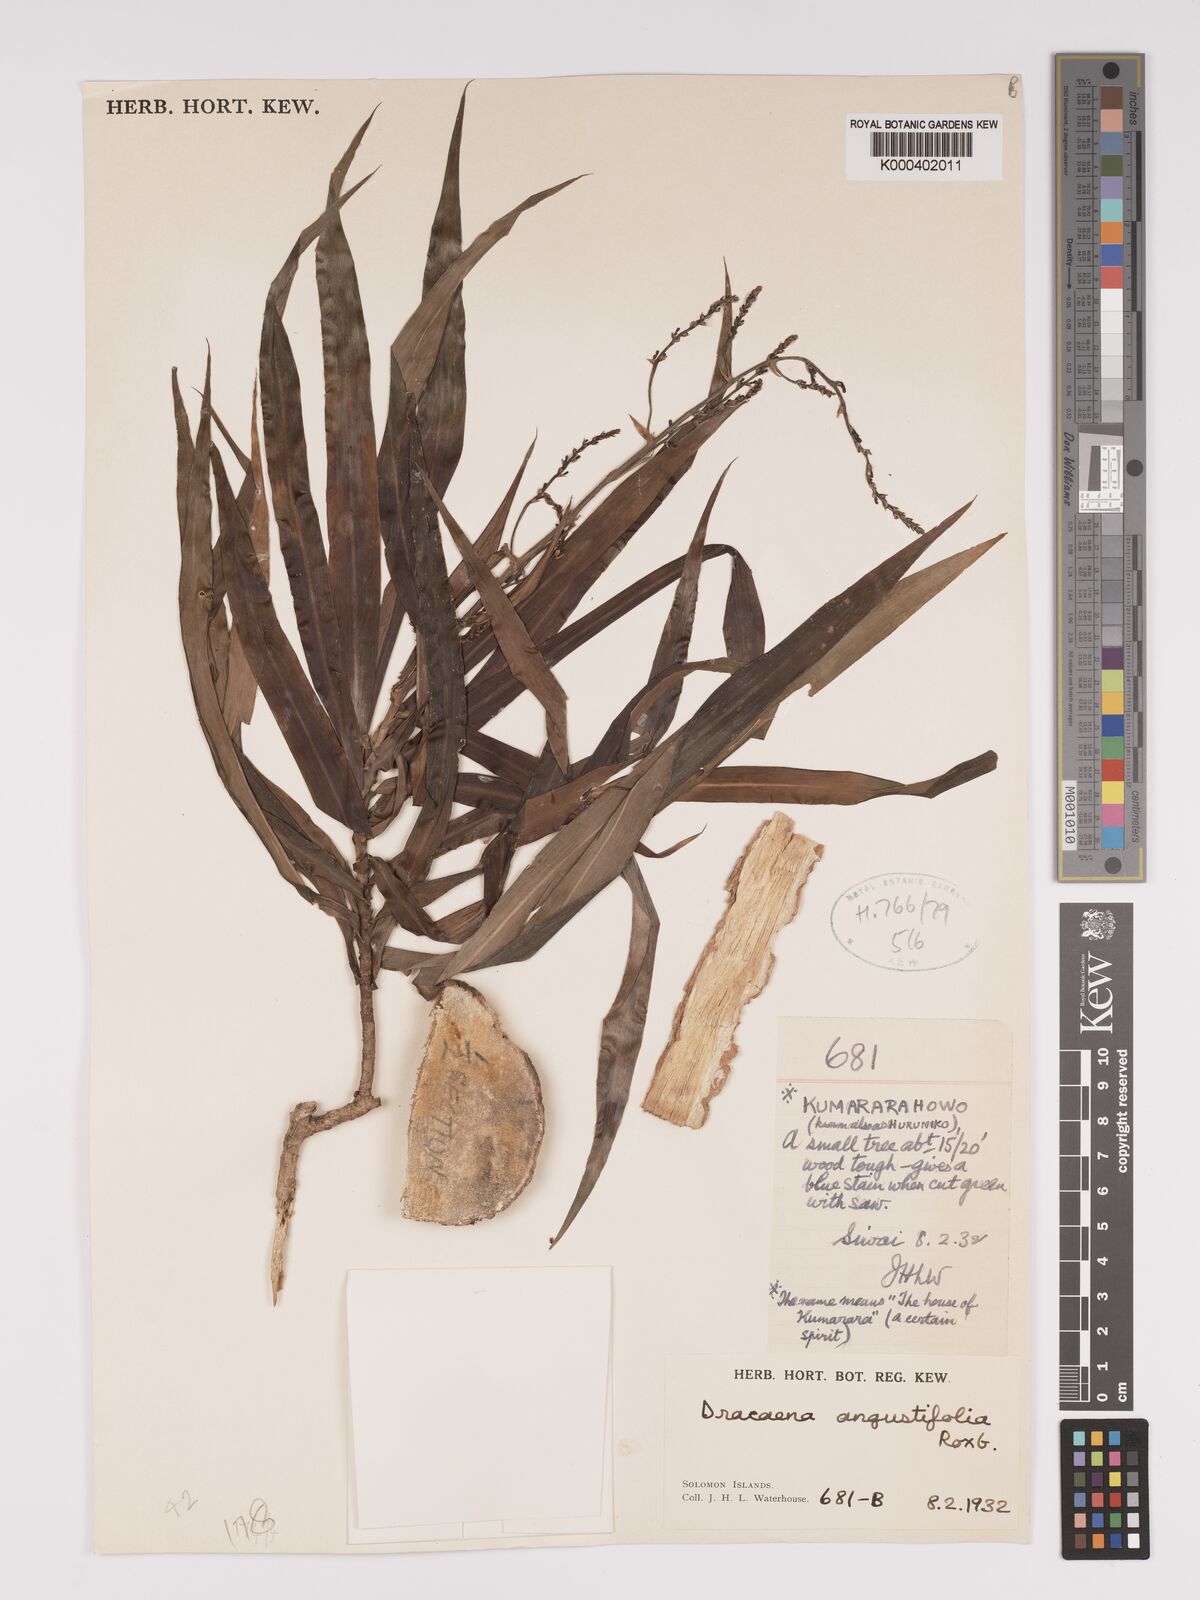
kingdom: Plantae
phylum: Tracheophyta
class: Liliopsida
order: Asparagales
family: Asparagaceae
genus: Dracaena
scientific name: Dracaena angustifolia
